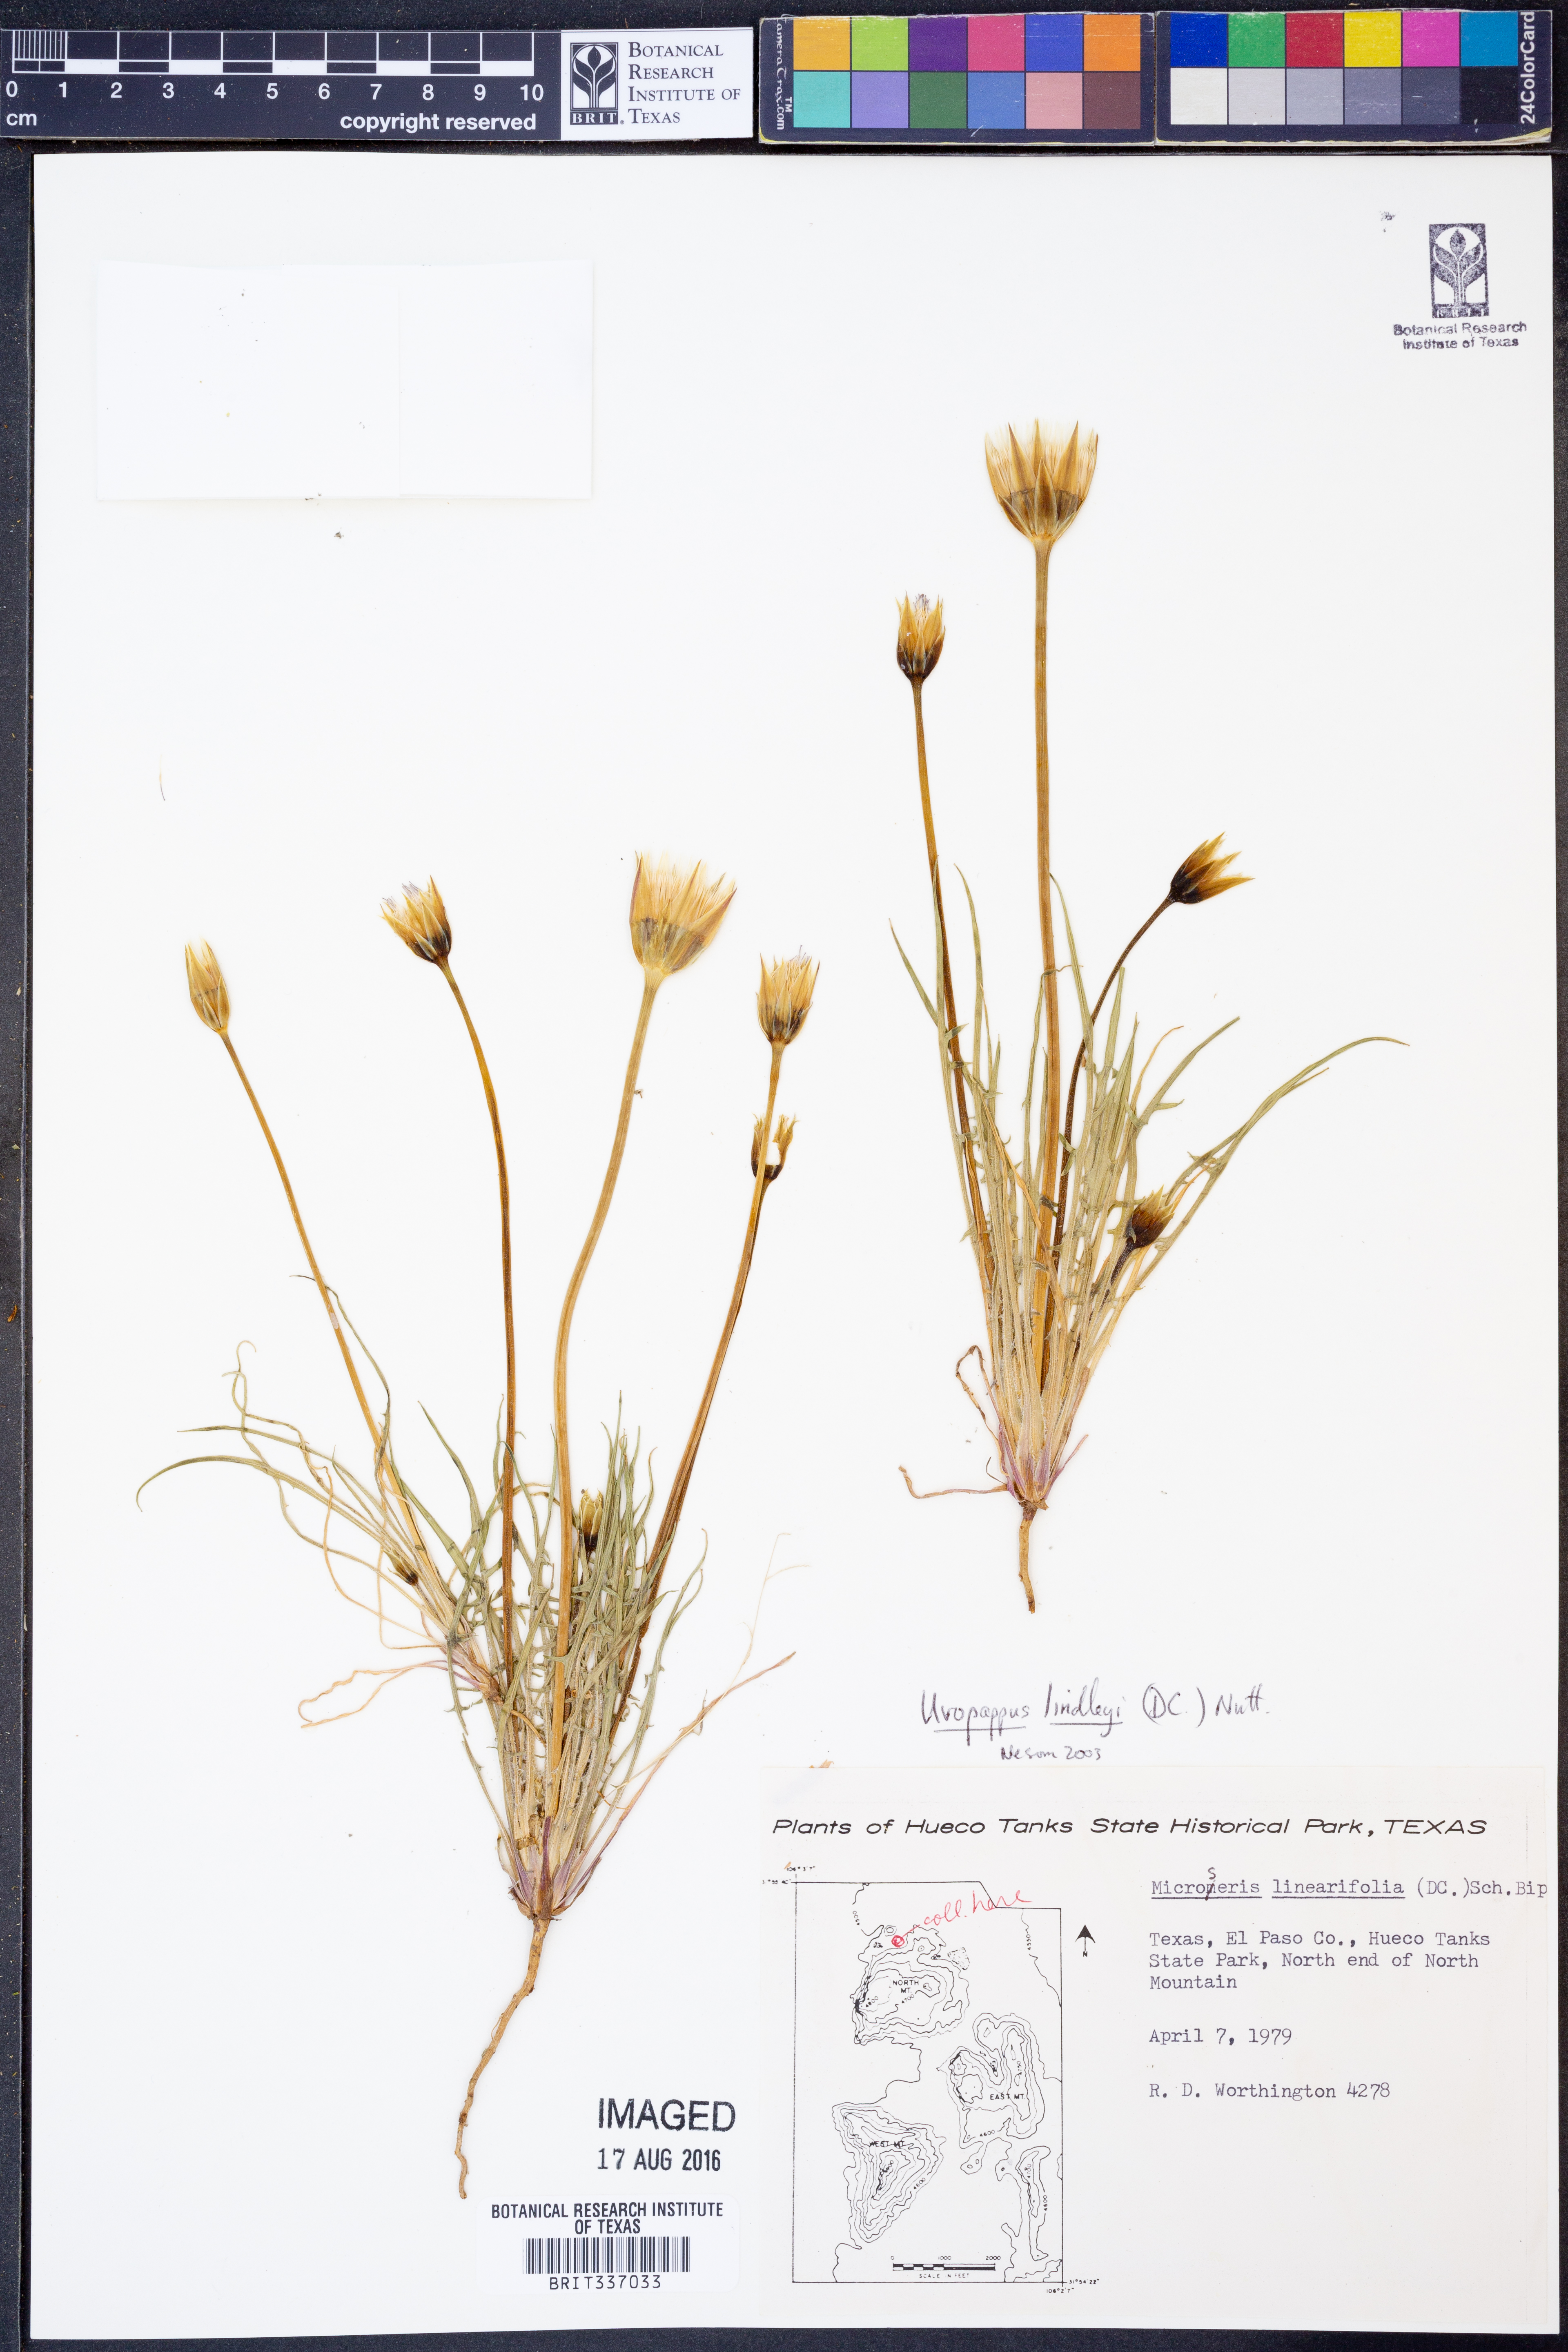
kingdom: Plantae
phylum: Tracheophyta
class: Magnoliopsida
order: Asterales
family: Asteraceae
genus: Microseris
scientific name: Microseris lindleyi
